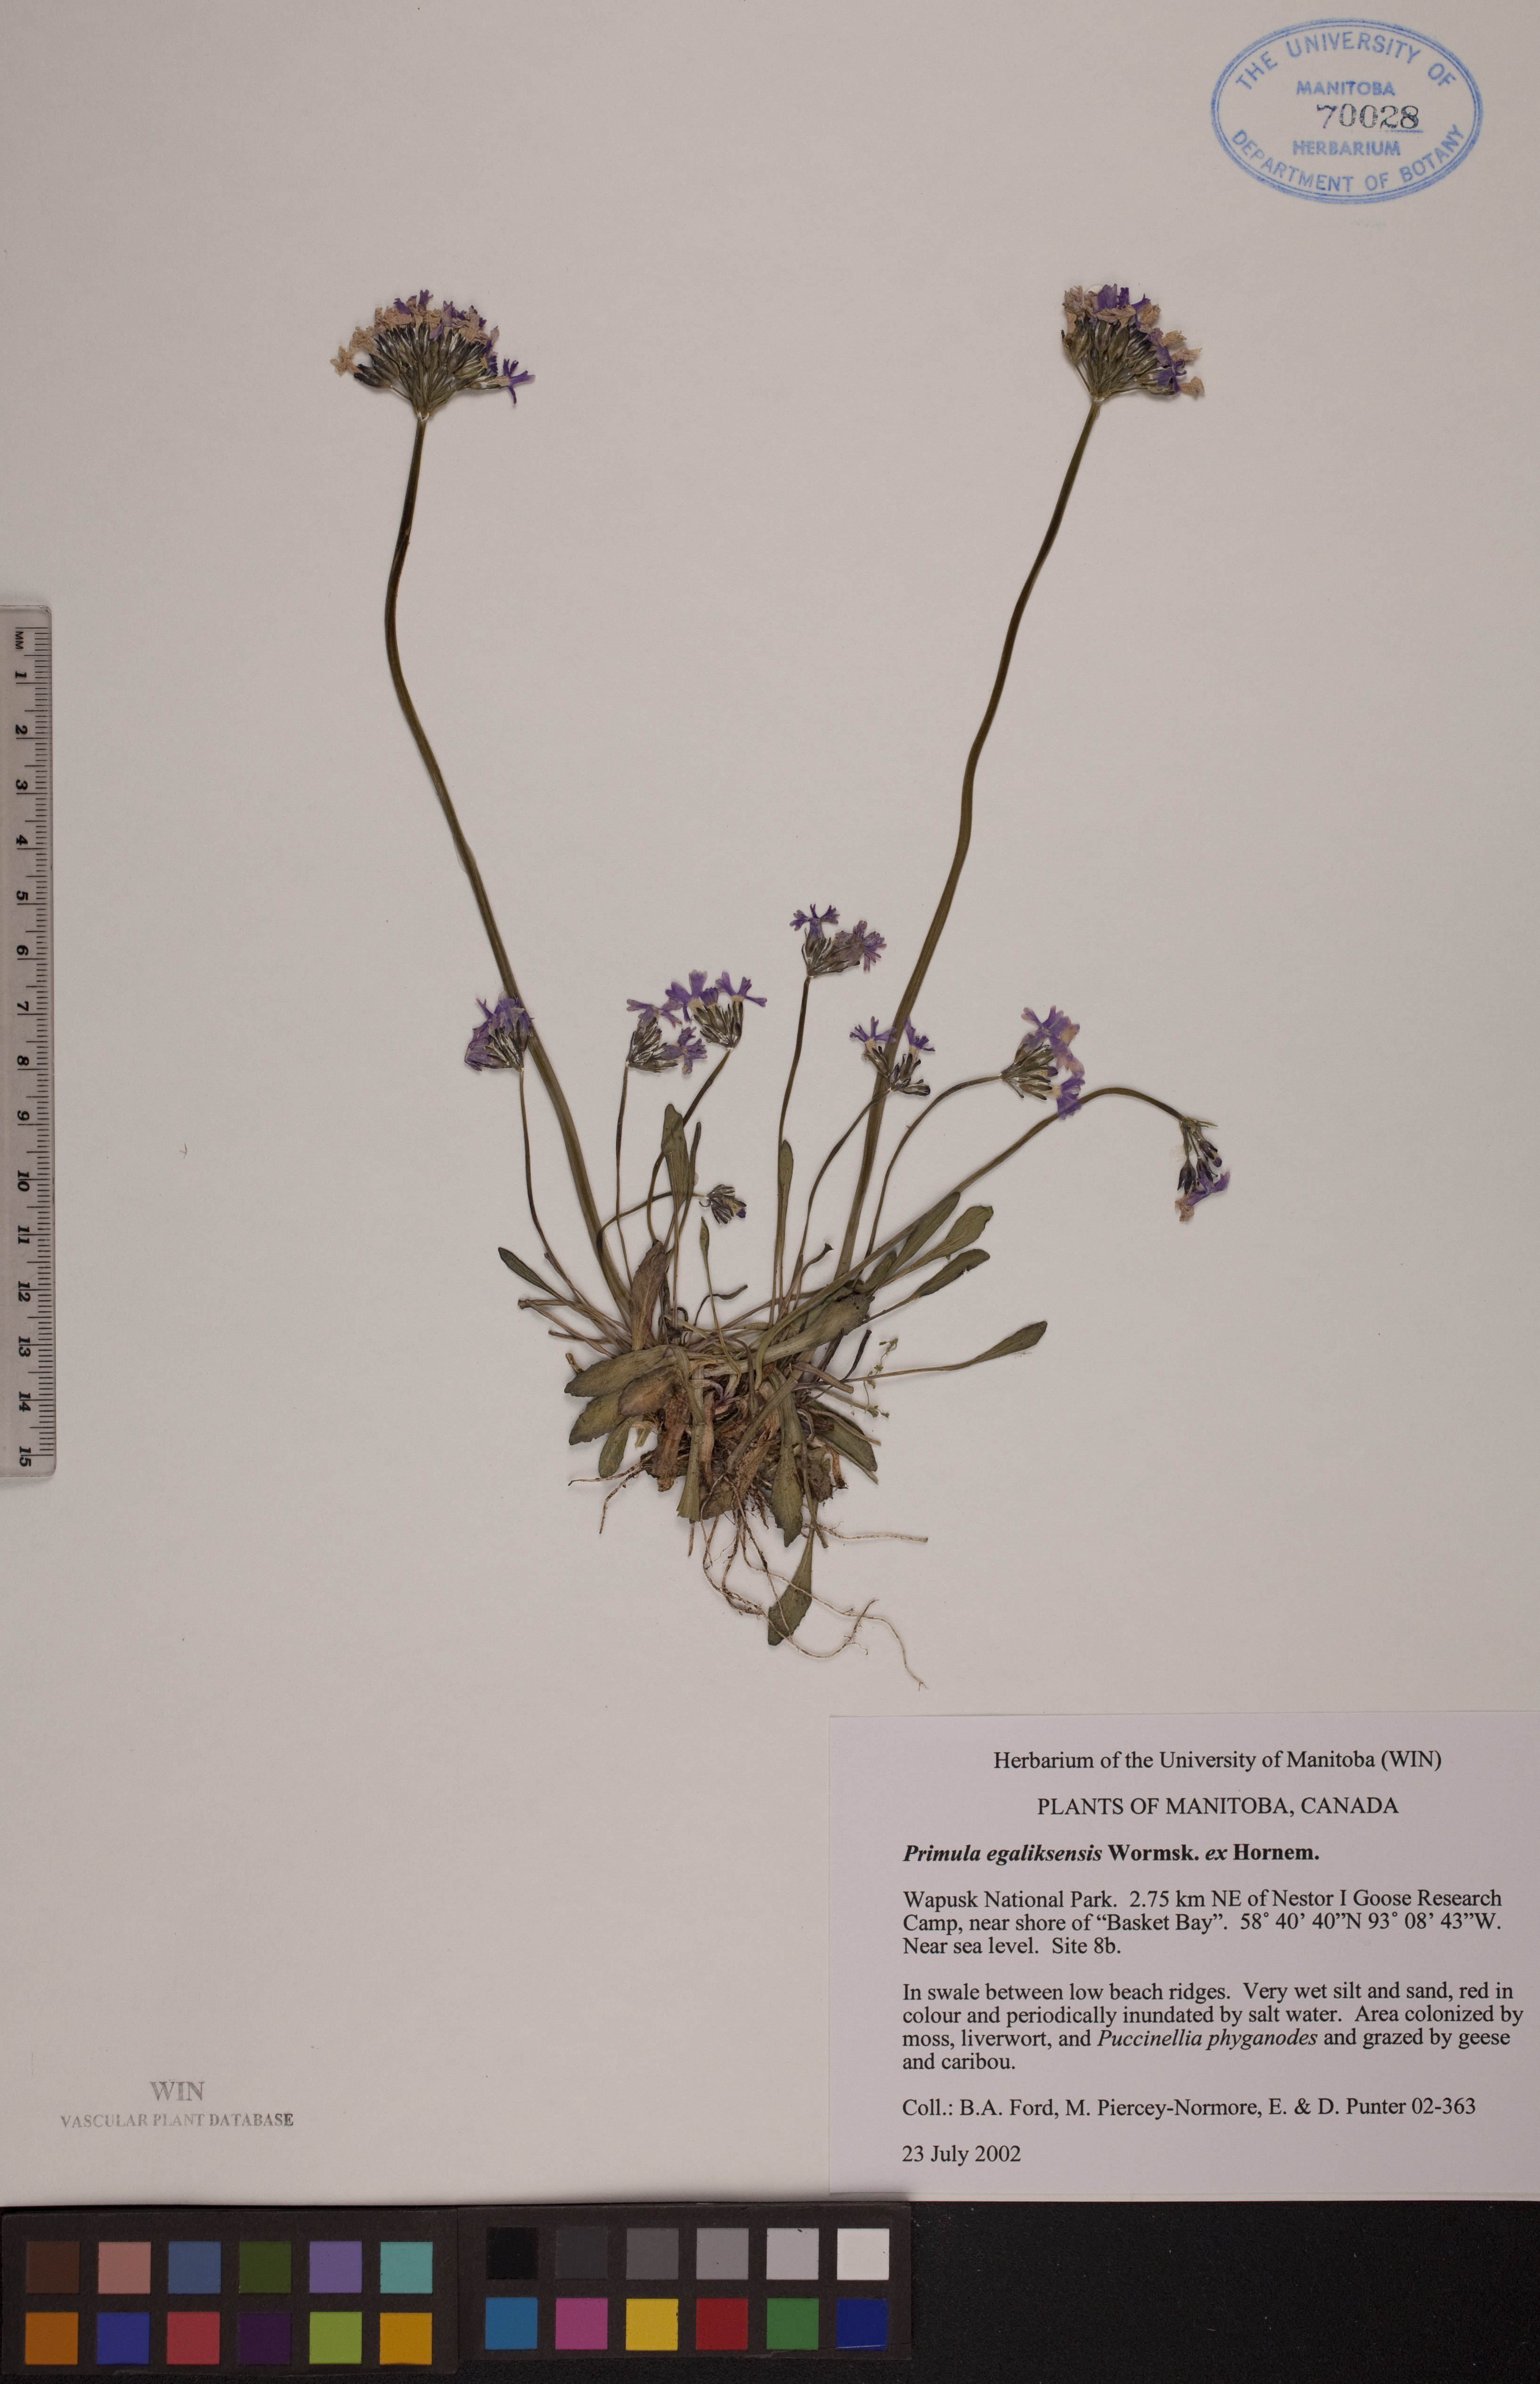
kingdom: Plantae
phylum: Tracheophyta
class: Magnoliopsida
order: Ericales
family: Primulaceae
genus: Primula
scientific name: Primula egaliksensis
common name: Greenland primrose
